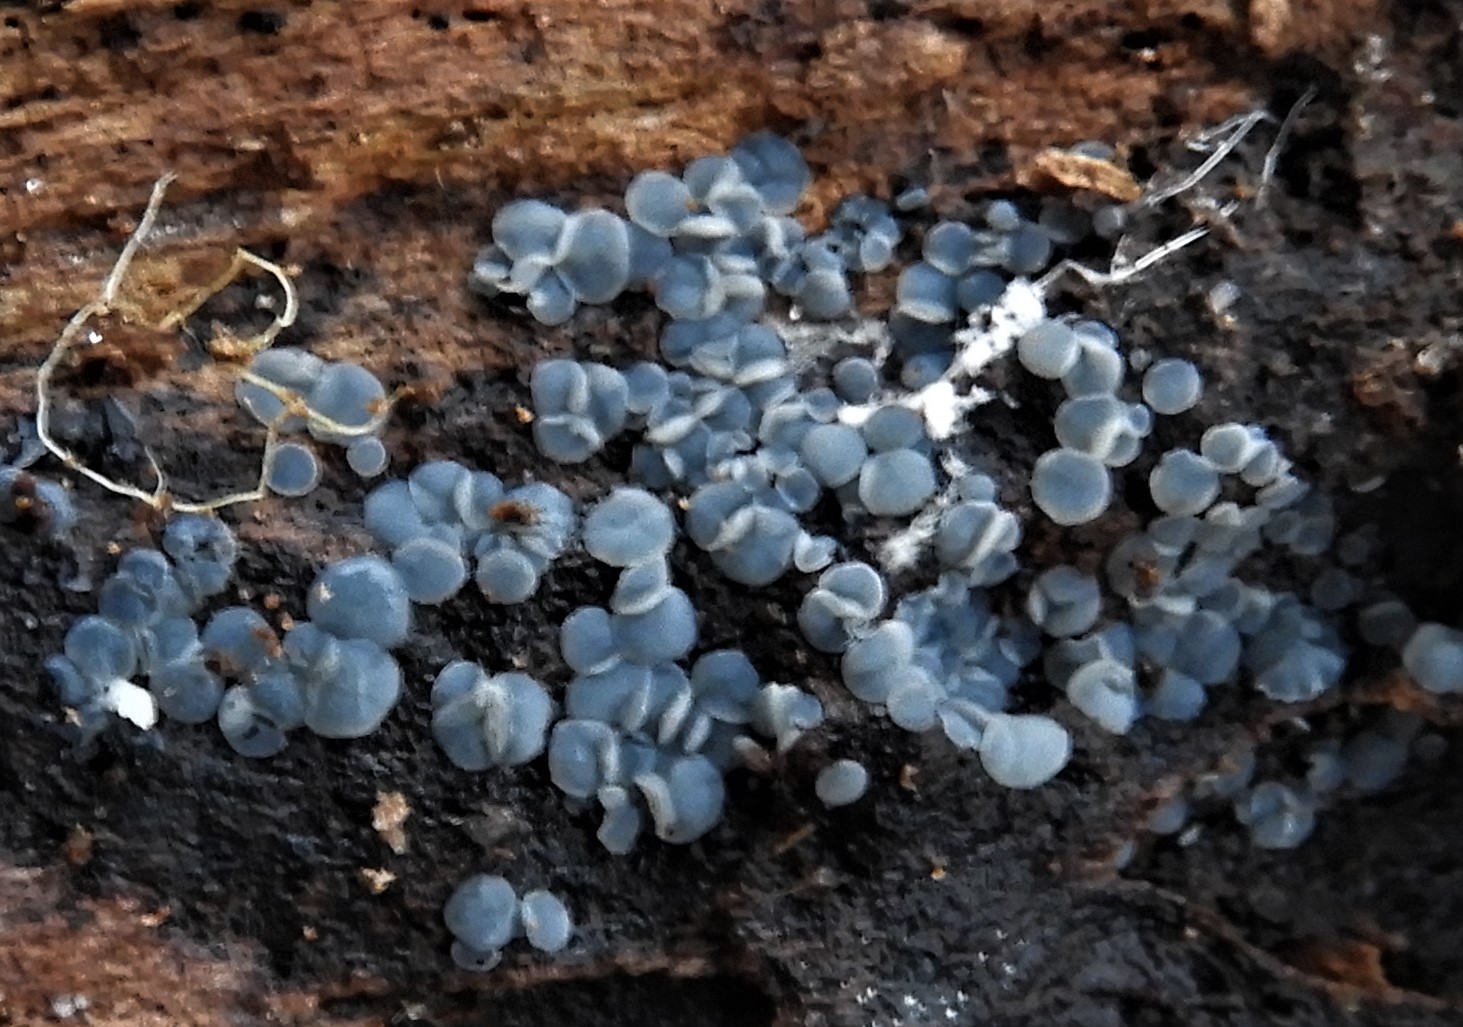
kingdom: Fungi
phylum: Ascomycota
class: Leotiomycetes
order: Helotiales
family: Mollisiaceae
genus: Mollisia
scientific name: Mollisia
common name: gråskive
